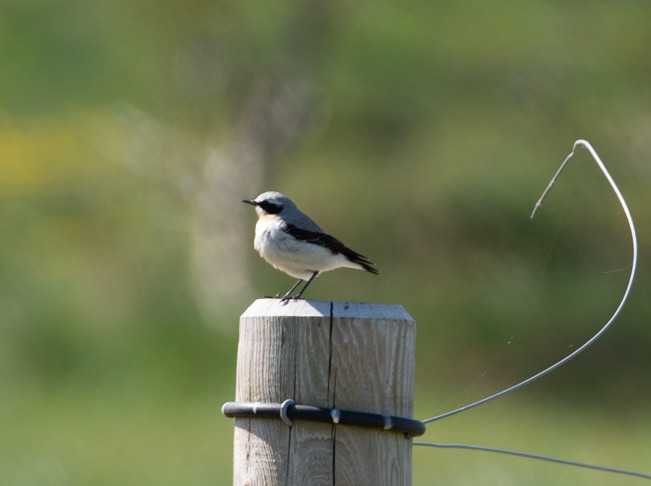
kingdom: Animalia
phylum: Chordata
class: Aves
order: Passeriformes
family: Muscicapidae
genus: Oenanthe
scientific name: Oenanthe oenanthe
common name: Stenpikker
